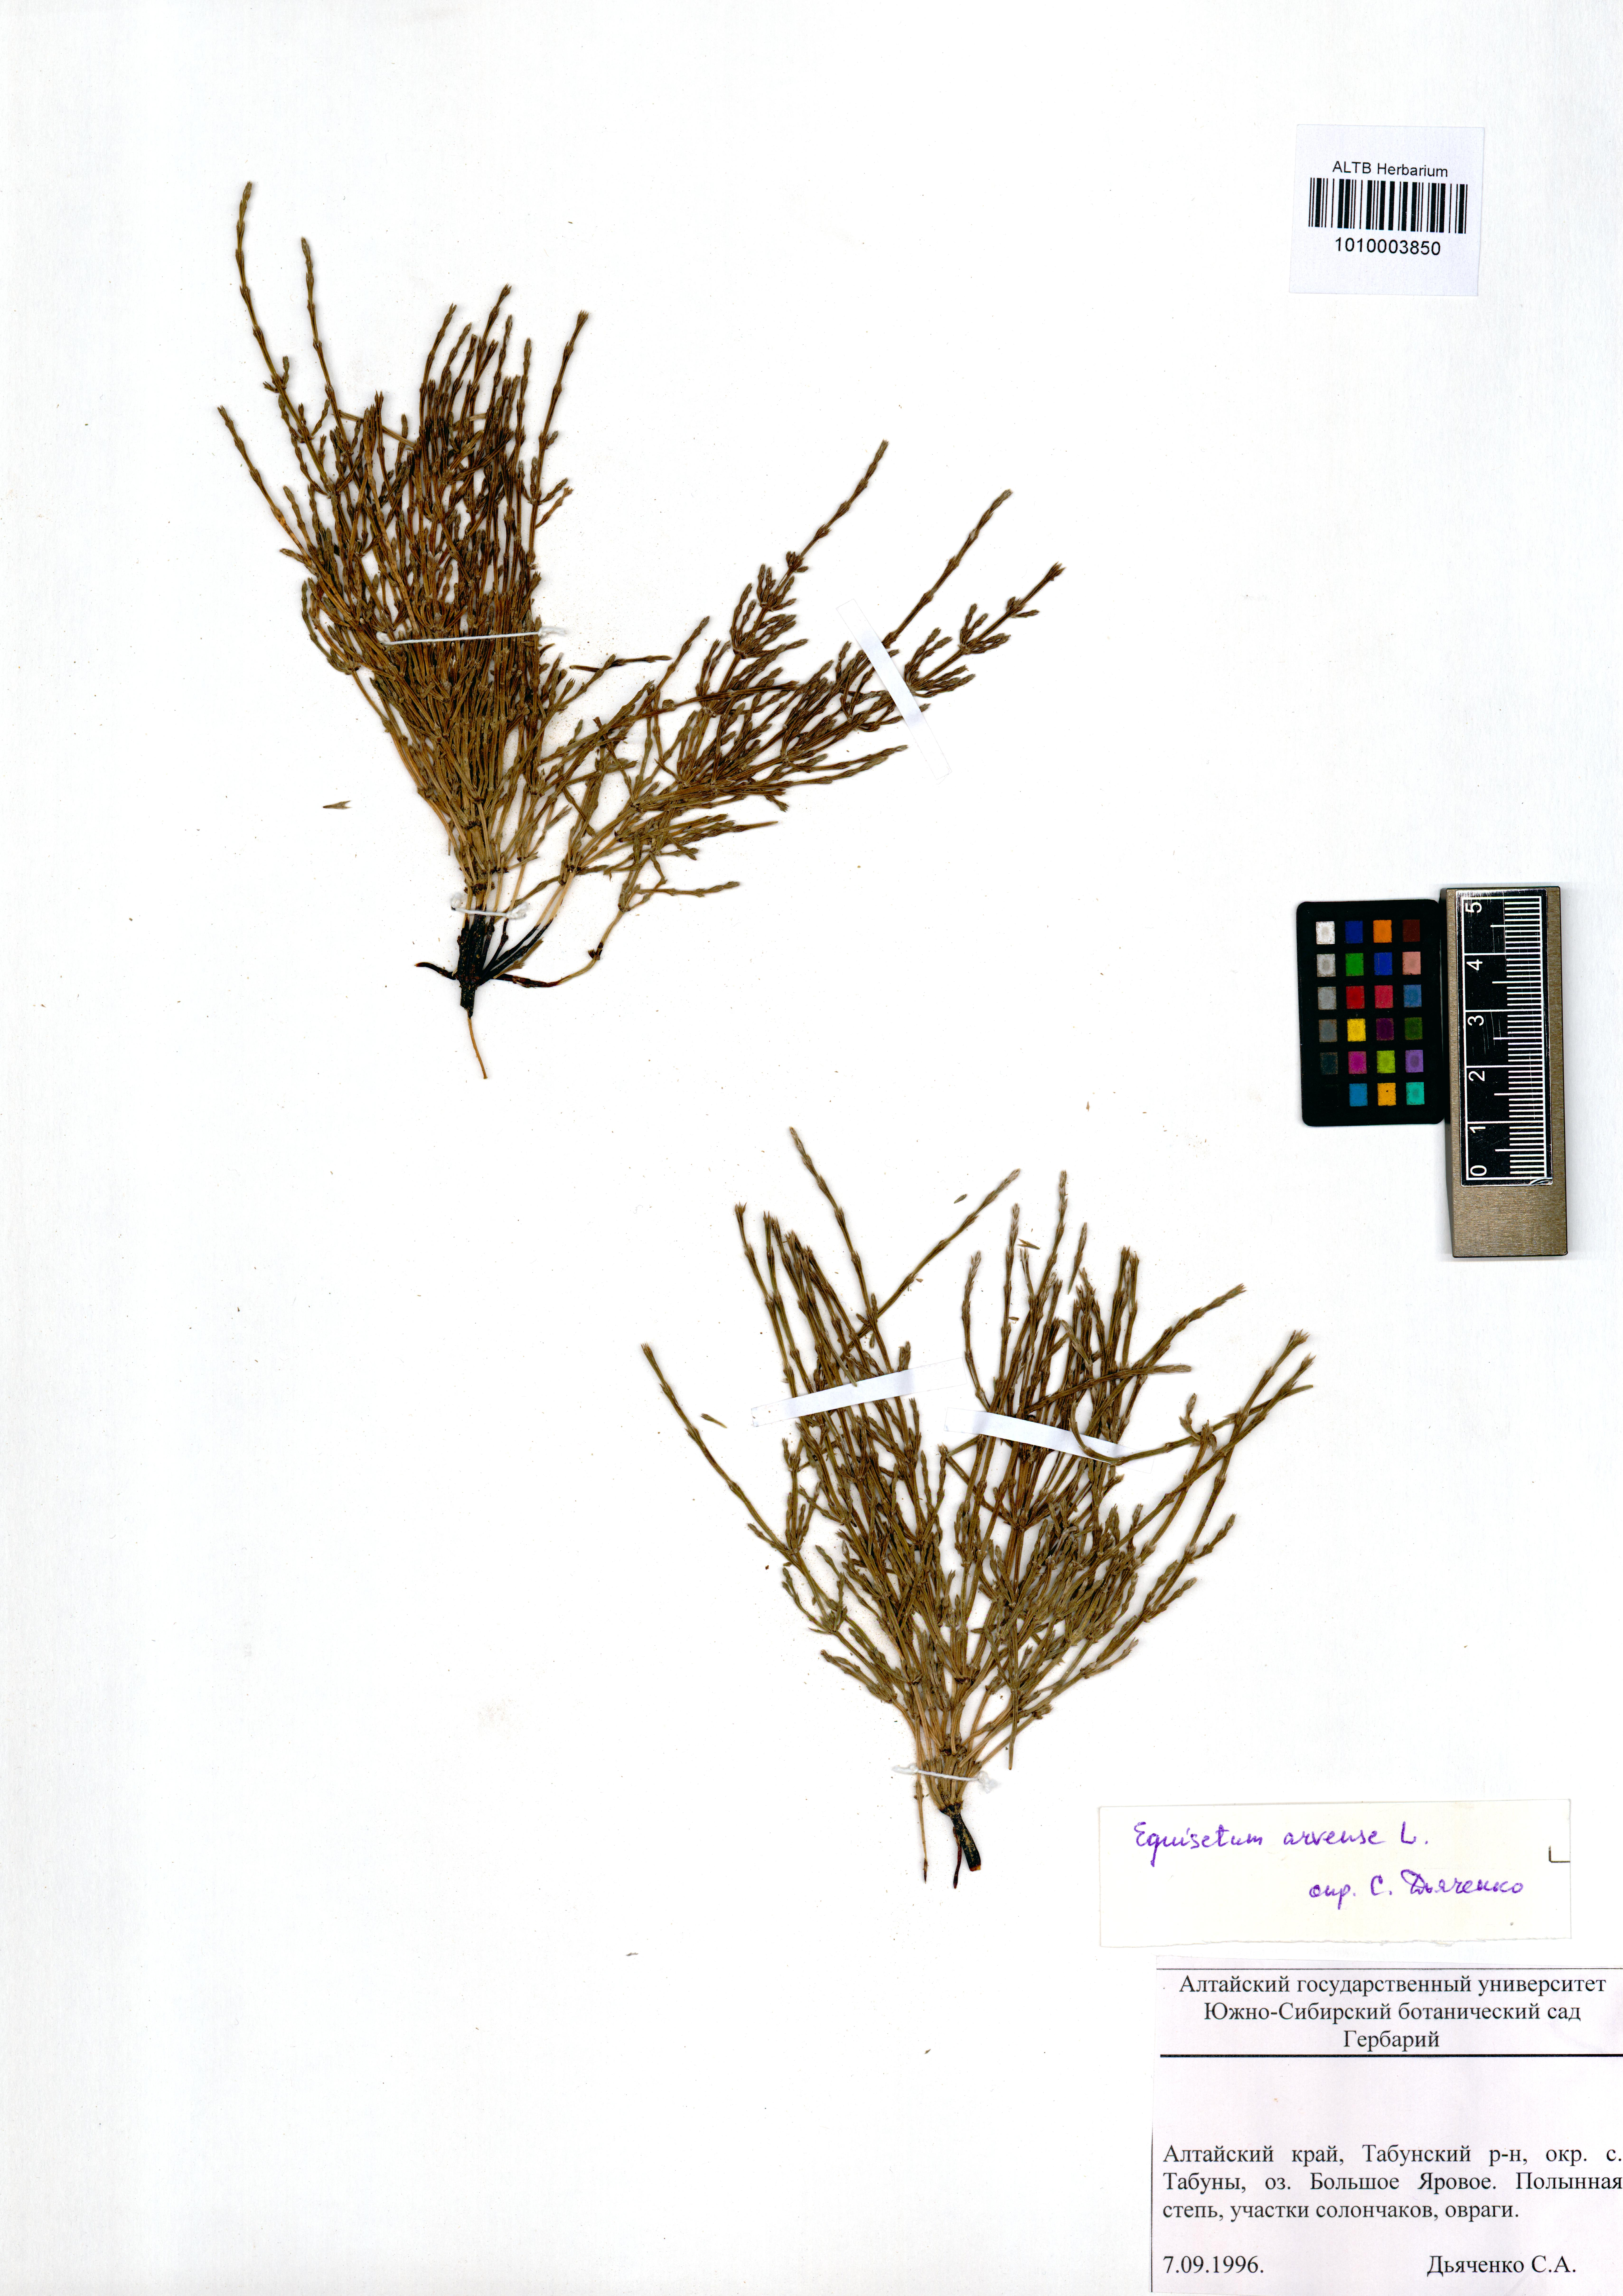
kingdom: Plantae
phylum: Tracheophyta
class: Polypodiopsida
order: Equisetales
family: Equisetaceae
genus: Equisetum
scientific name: Equisetum arvense
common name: Field horsetail
